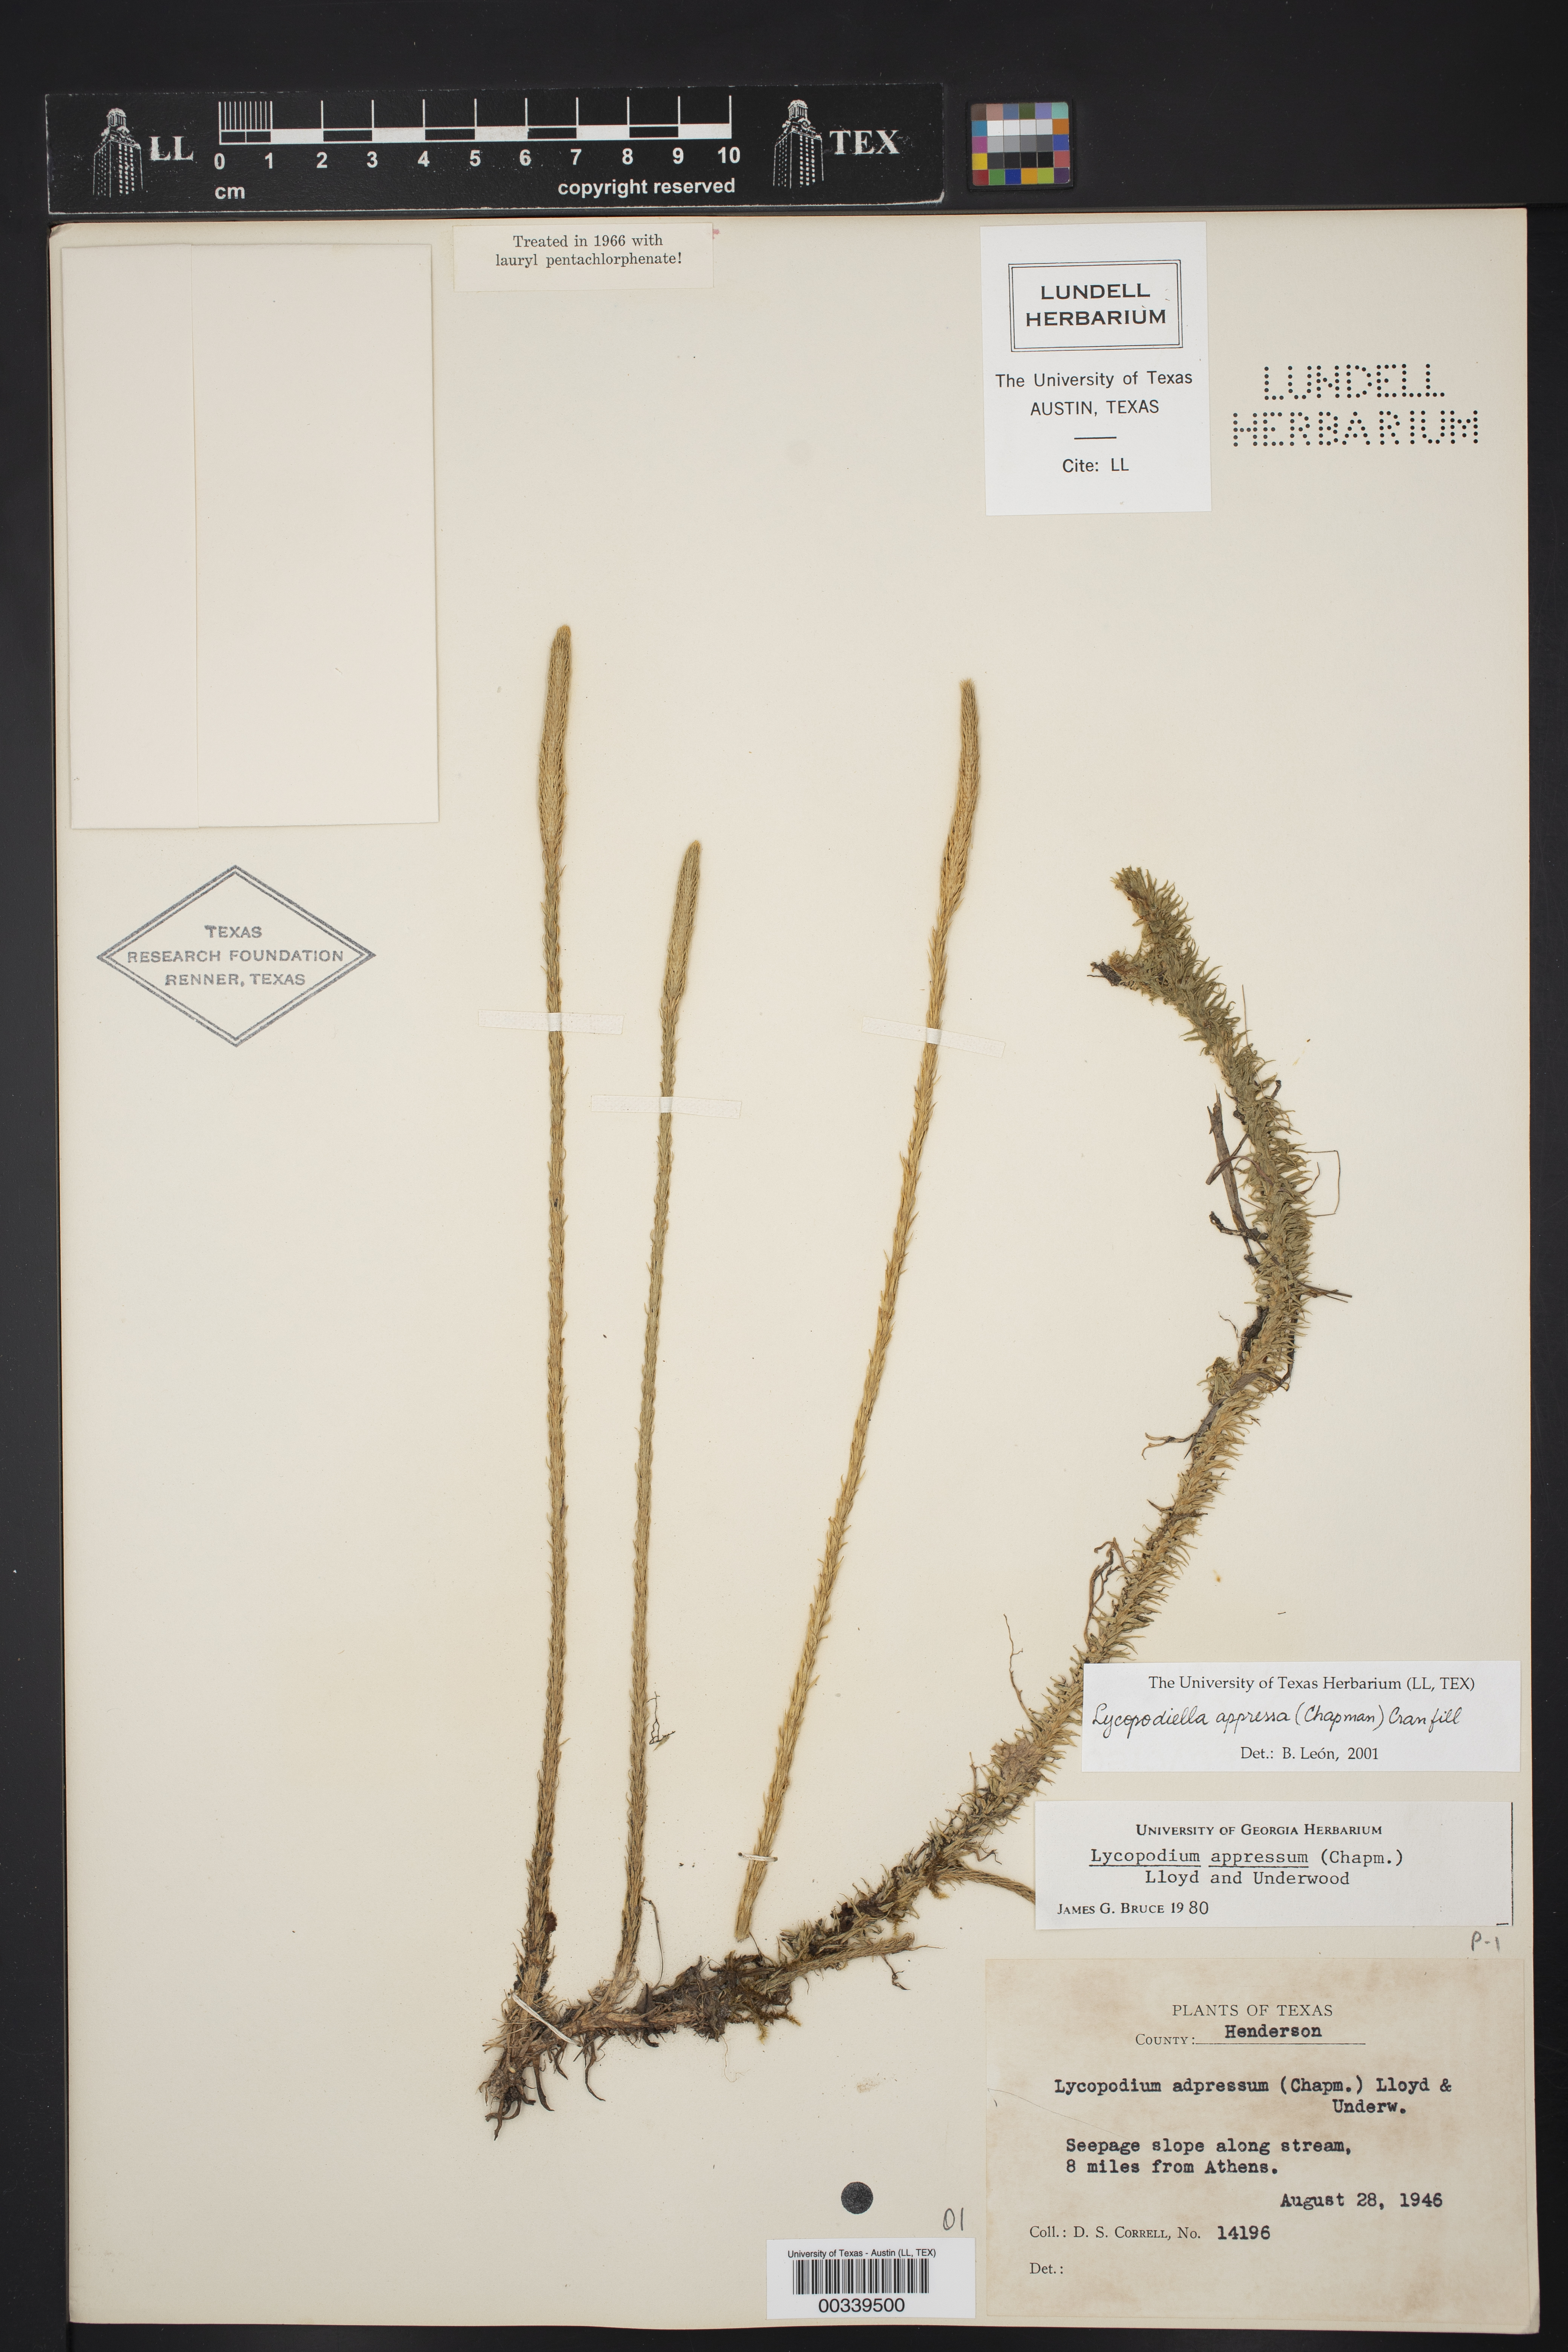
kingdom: Plantae
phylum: Tracheophyta
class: Lycopodiopsida
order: Lycopodiales
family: Lycopodiaceae
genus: Lycopodiella
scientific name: Lycopodiella appressa
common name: Appressed bog clubmoss
